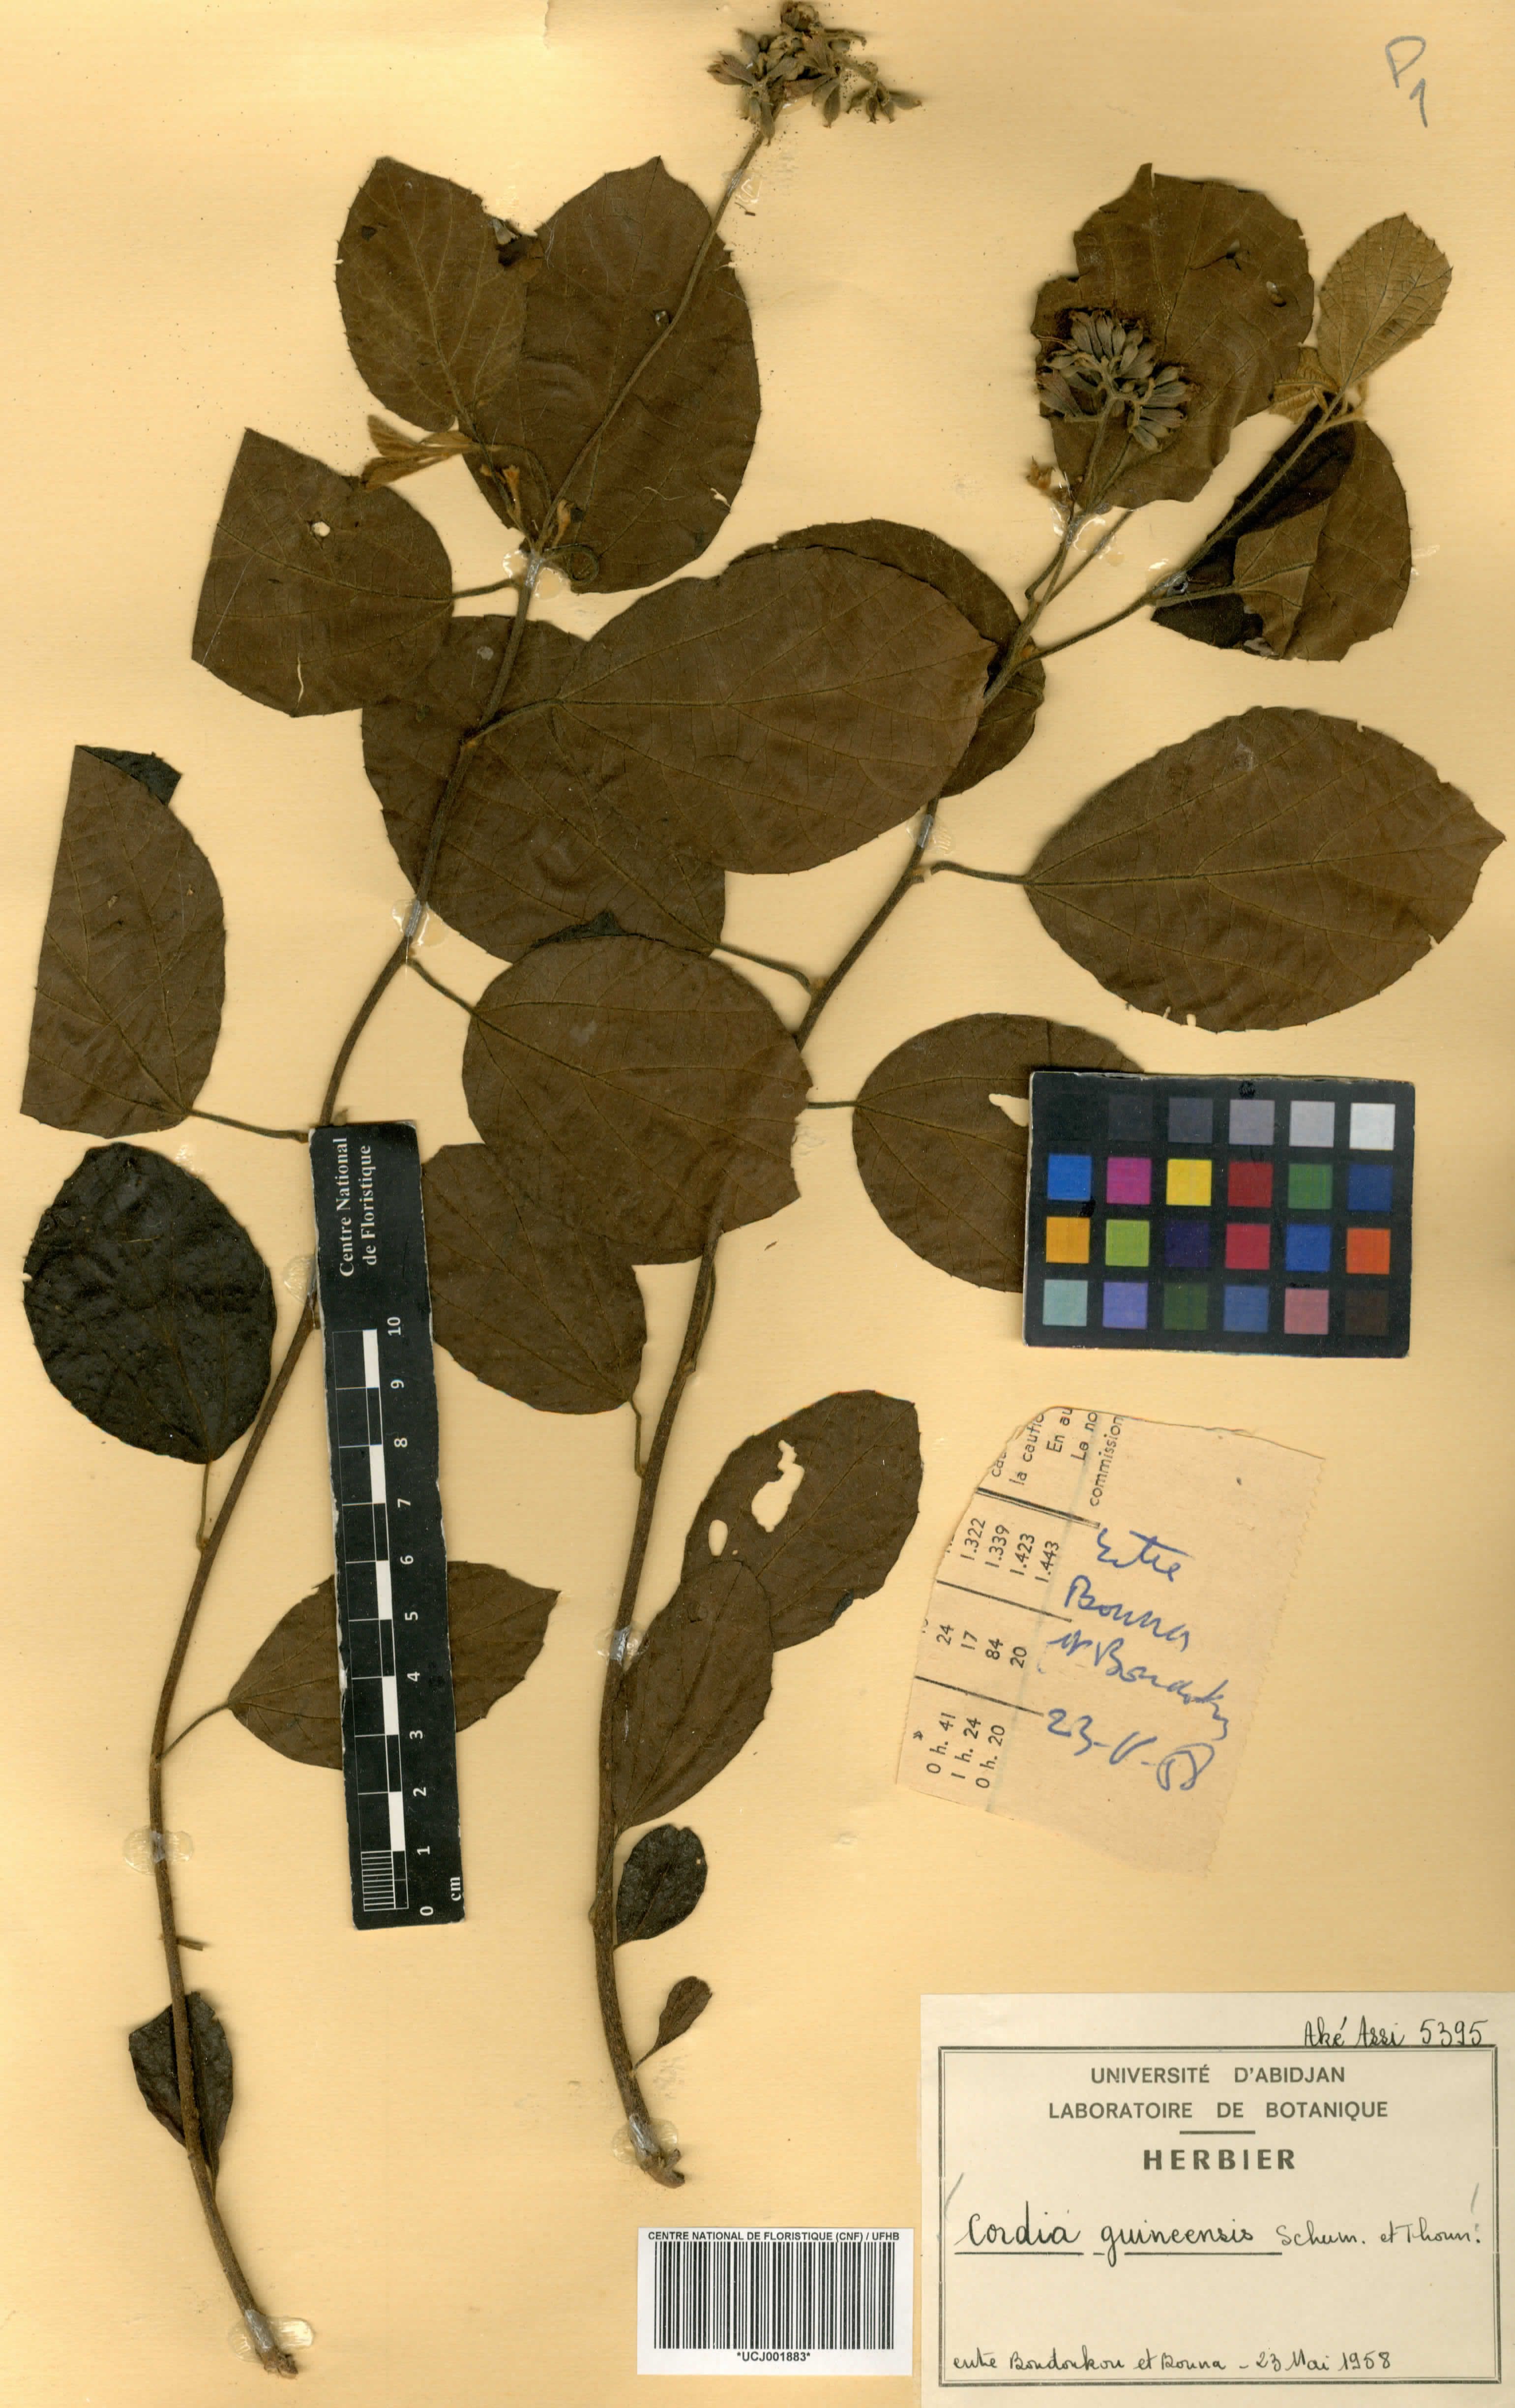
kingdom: Plantae
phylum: Tracheophyta
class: Magnoliopsida
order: Boraginales
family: Cordiaceae
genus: Cordia
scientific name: Cordia guineensis
